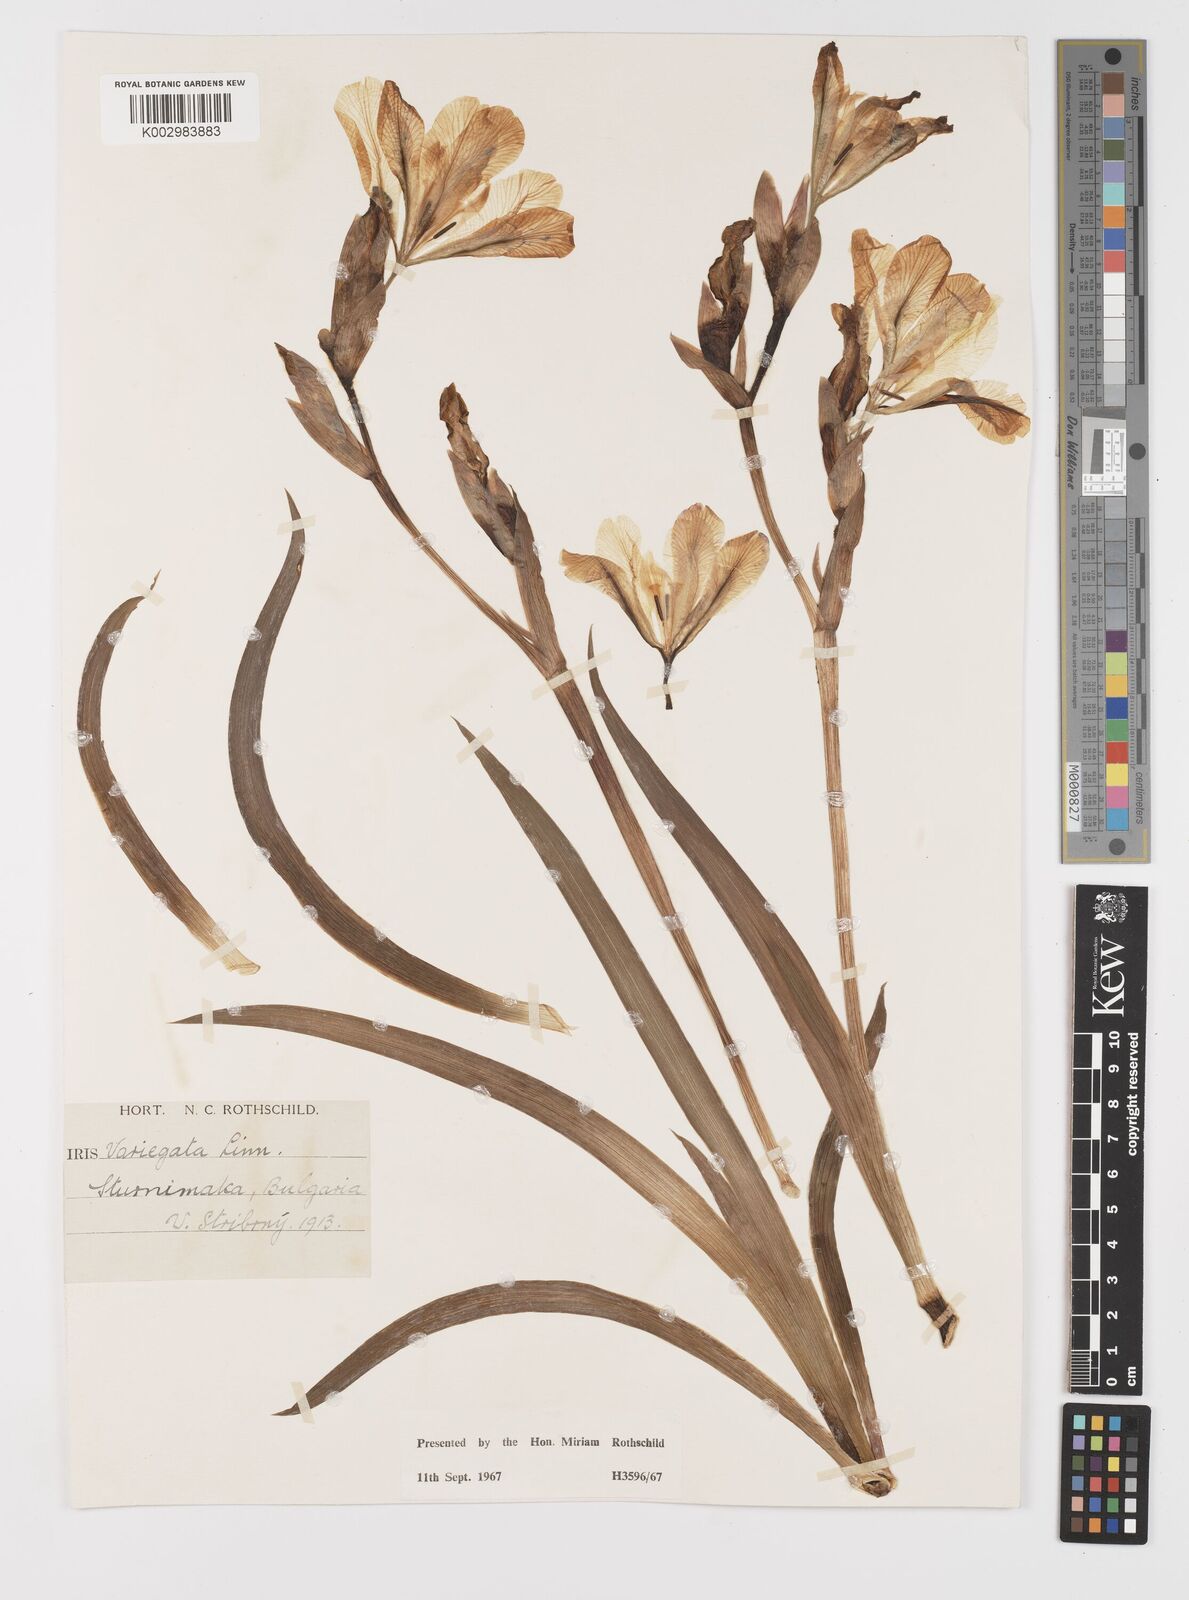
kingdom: Plantae
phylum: Tracheophyta
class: Liliopsida
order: Asparagales
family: Iridaceae
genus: Iris
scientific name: Iris variegata
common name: Hungarian iris
